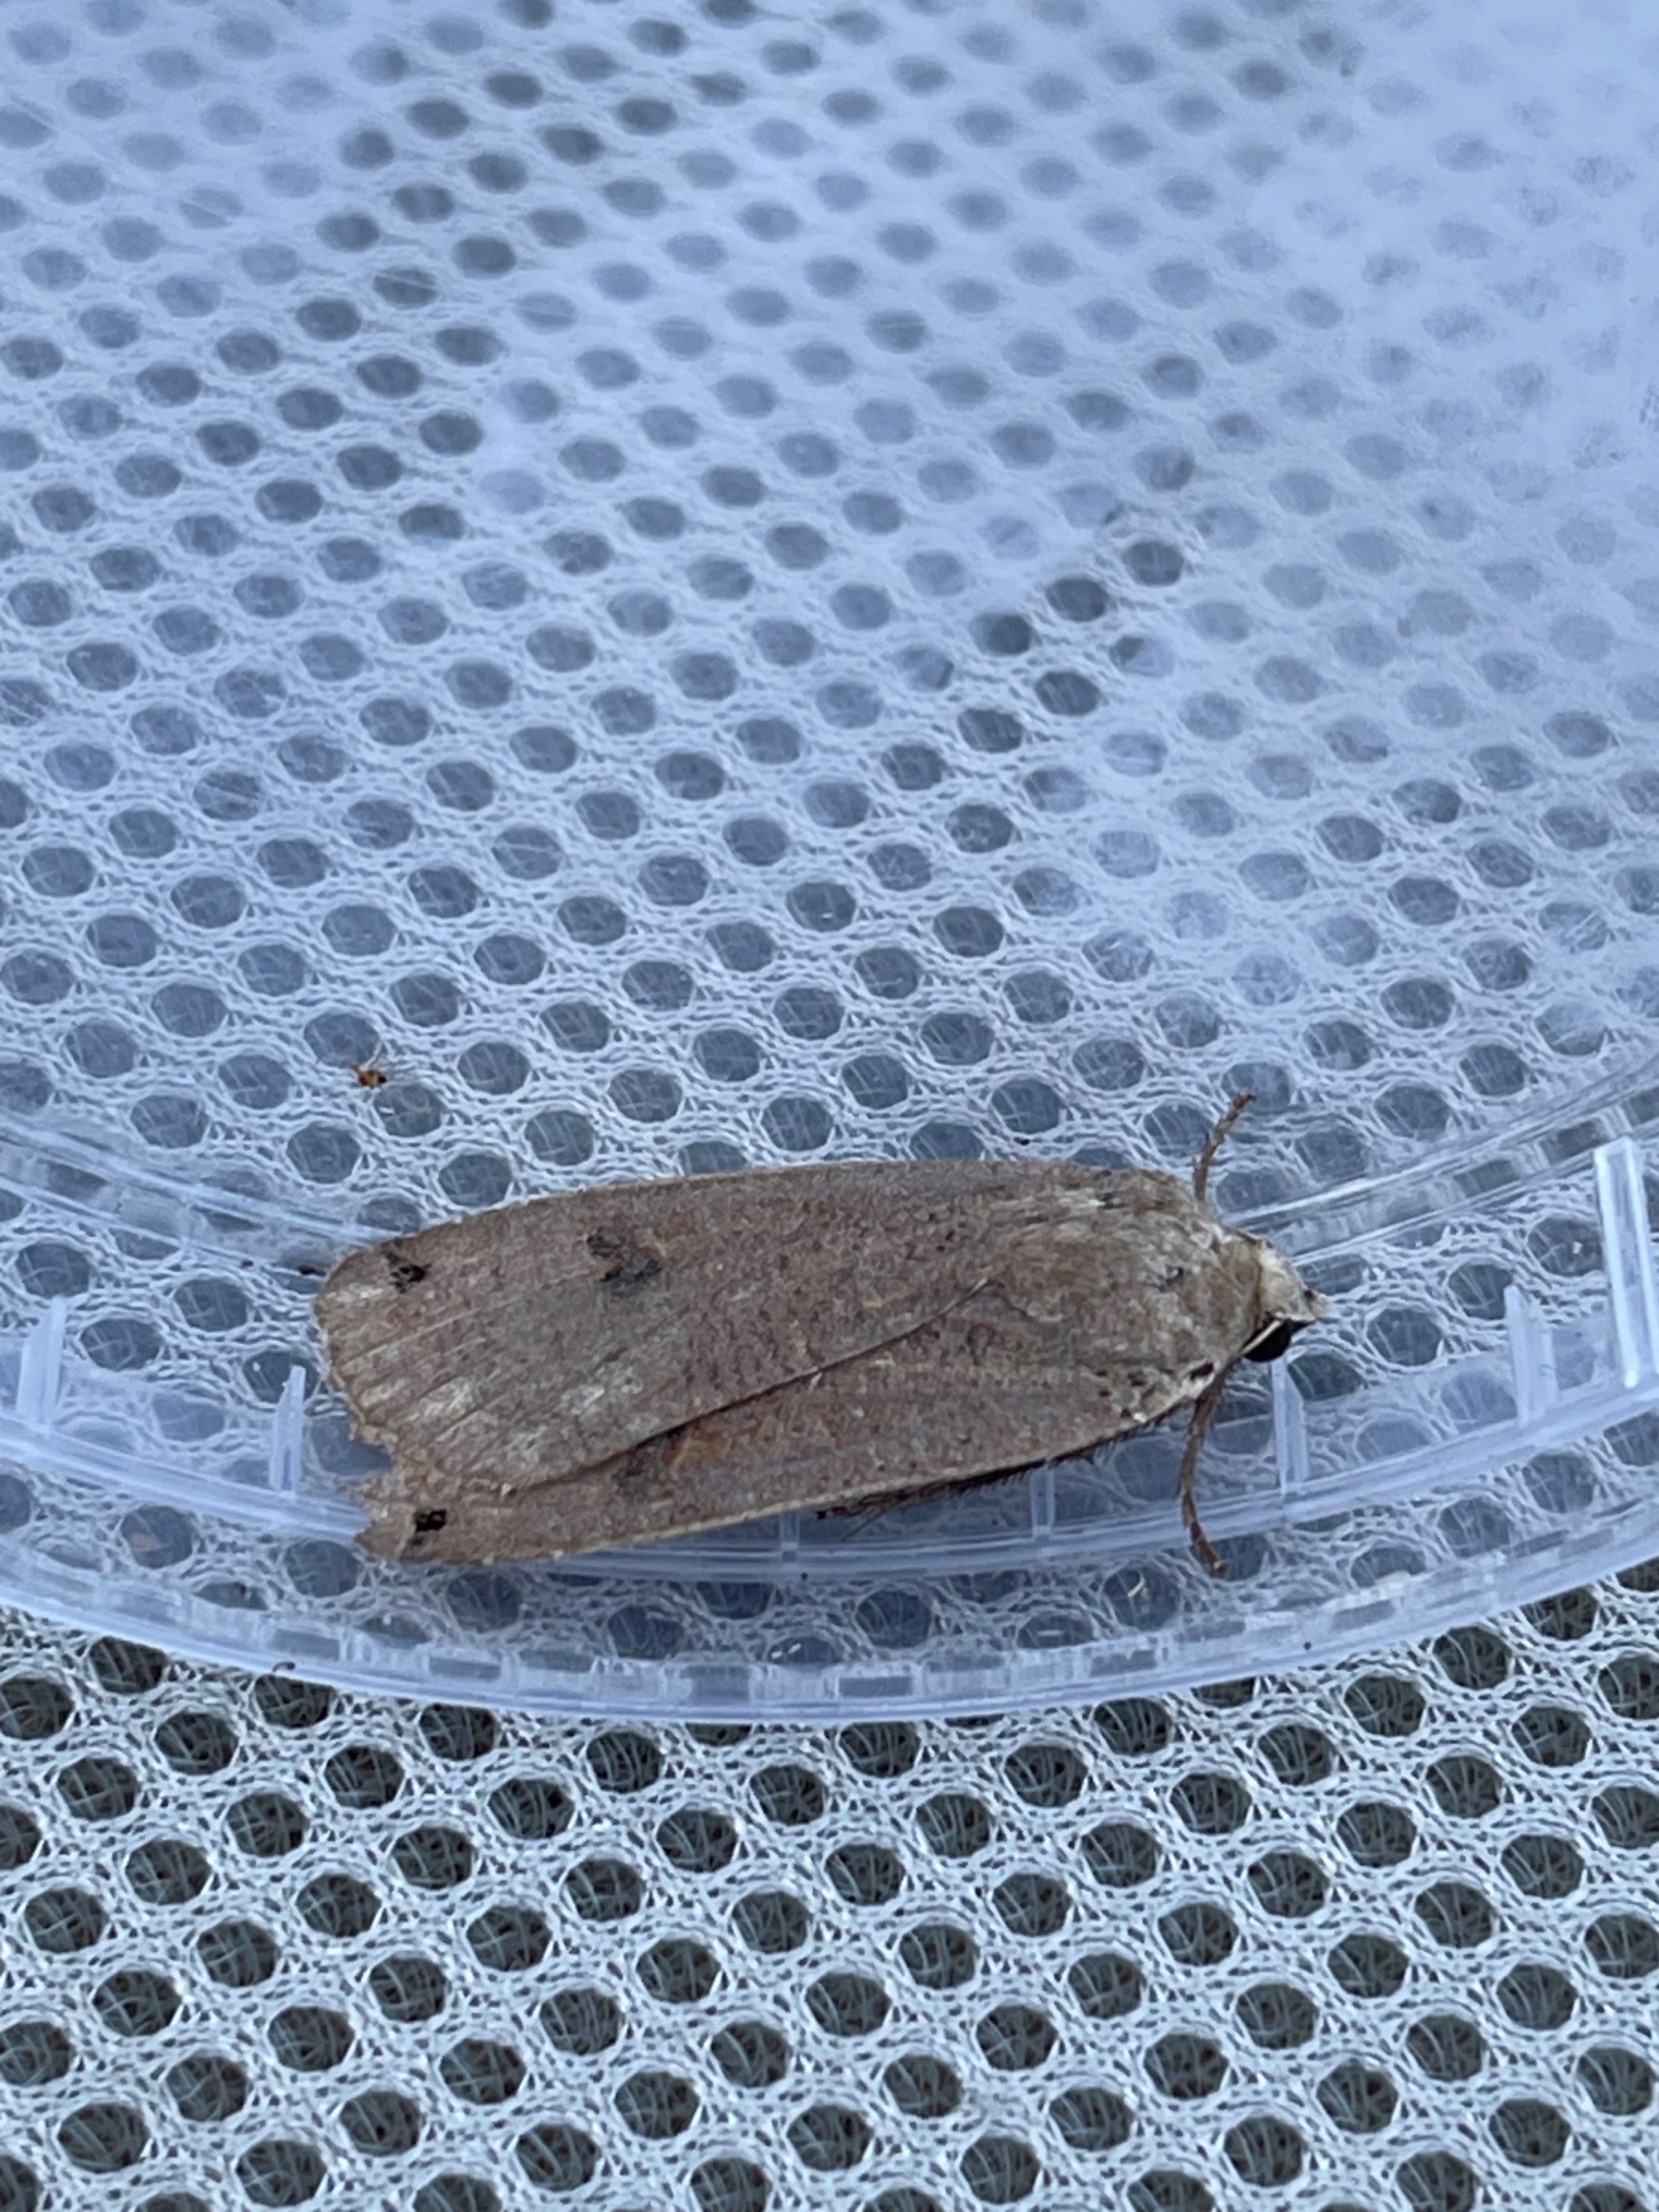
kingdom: Animalia
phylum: Arthropoda
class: Insecta
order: Lepidoptera
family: Noctuidae
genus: Noctua
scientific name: Noctua pronuba
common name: Stor smutugle
